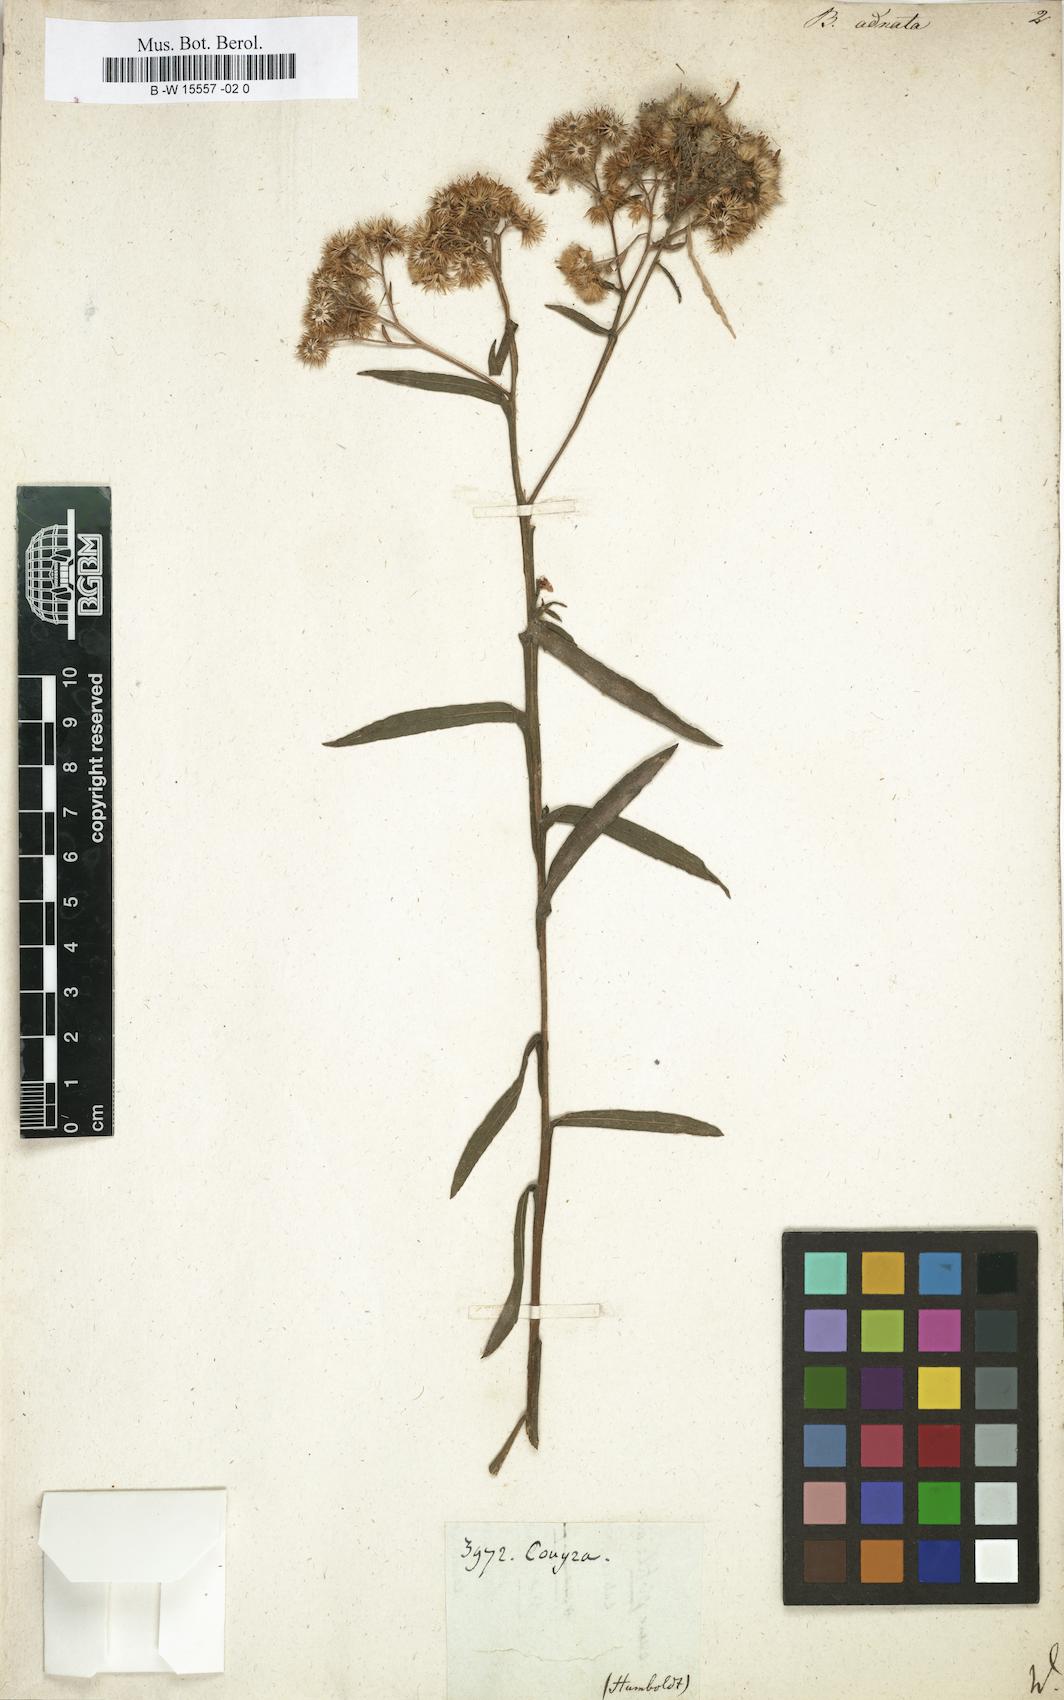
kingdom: Plantae
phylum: Tracheophyta
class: Magnoliopsida
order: Asterales
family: Asteraceae
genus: Pluchea
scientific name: Pluchea salicifolia
